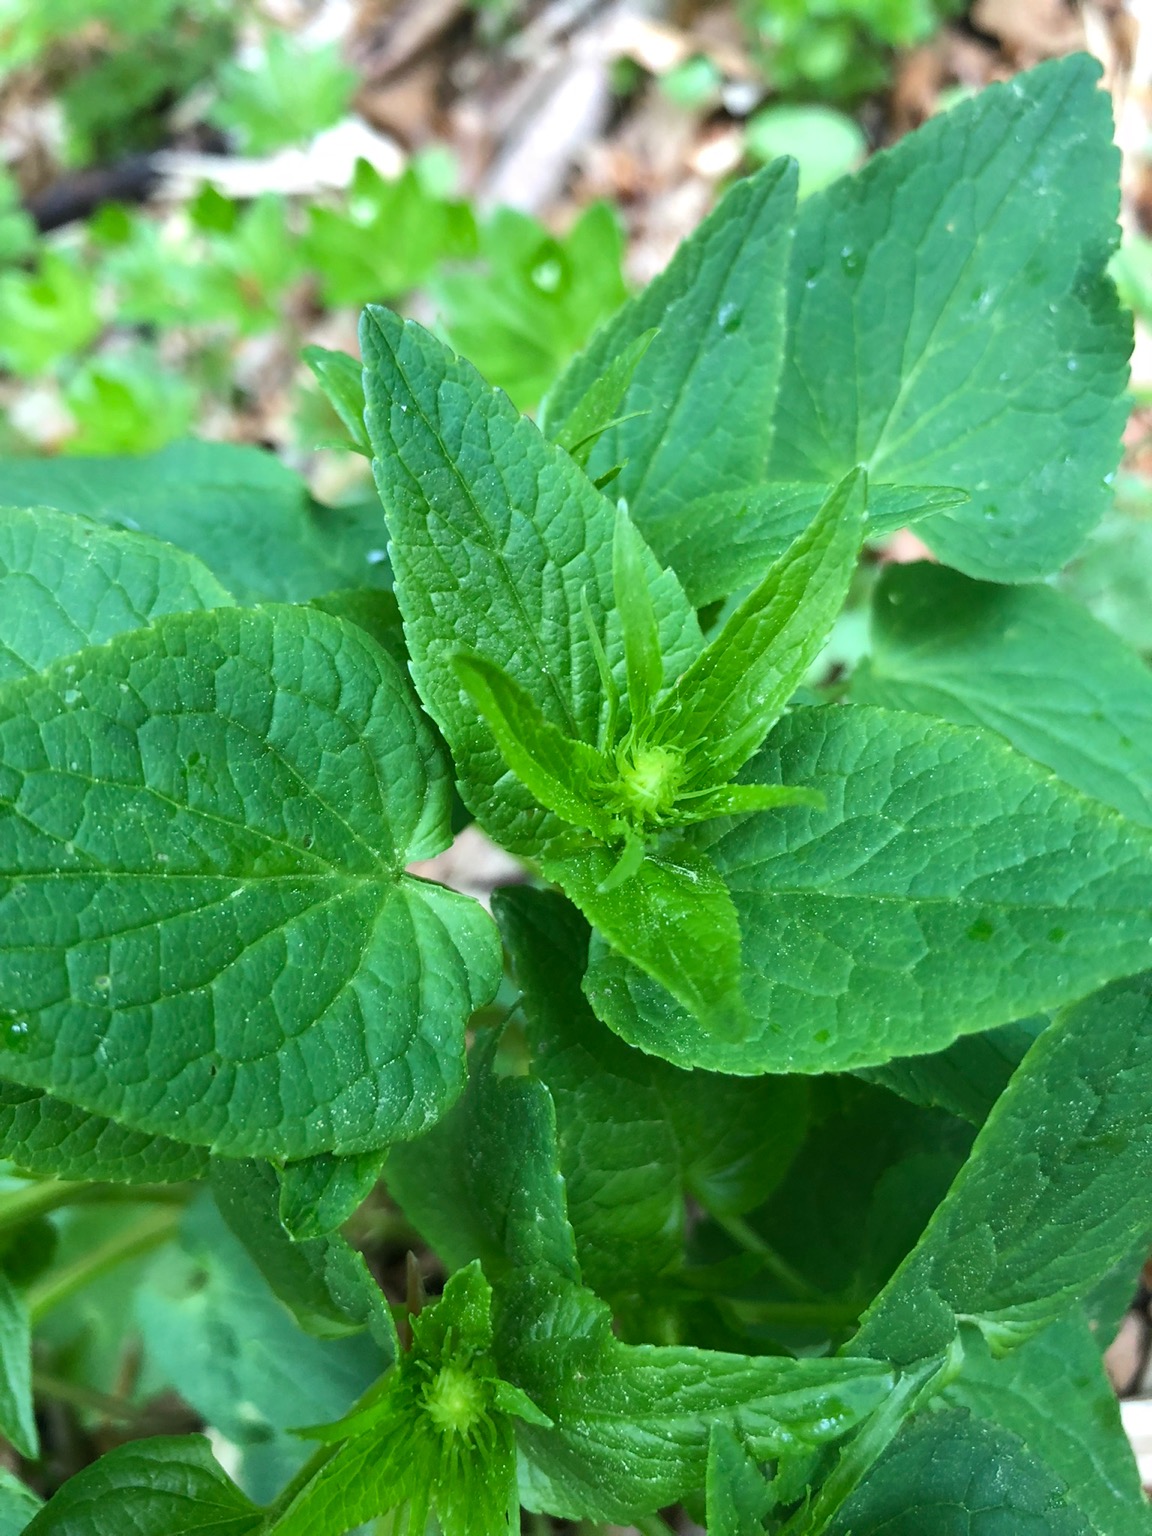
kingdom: Plantae
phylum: Tracheophyta
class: Magnoliopsida
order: Asterales
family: Campanulaceae
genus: Phyteuma
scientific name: Phyteuma spicatum
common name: Aks-rapunsel
